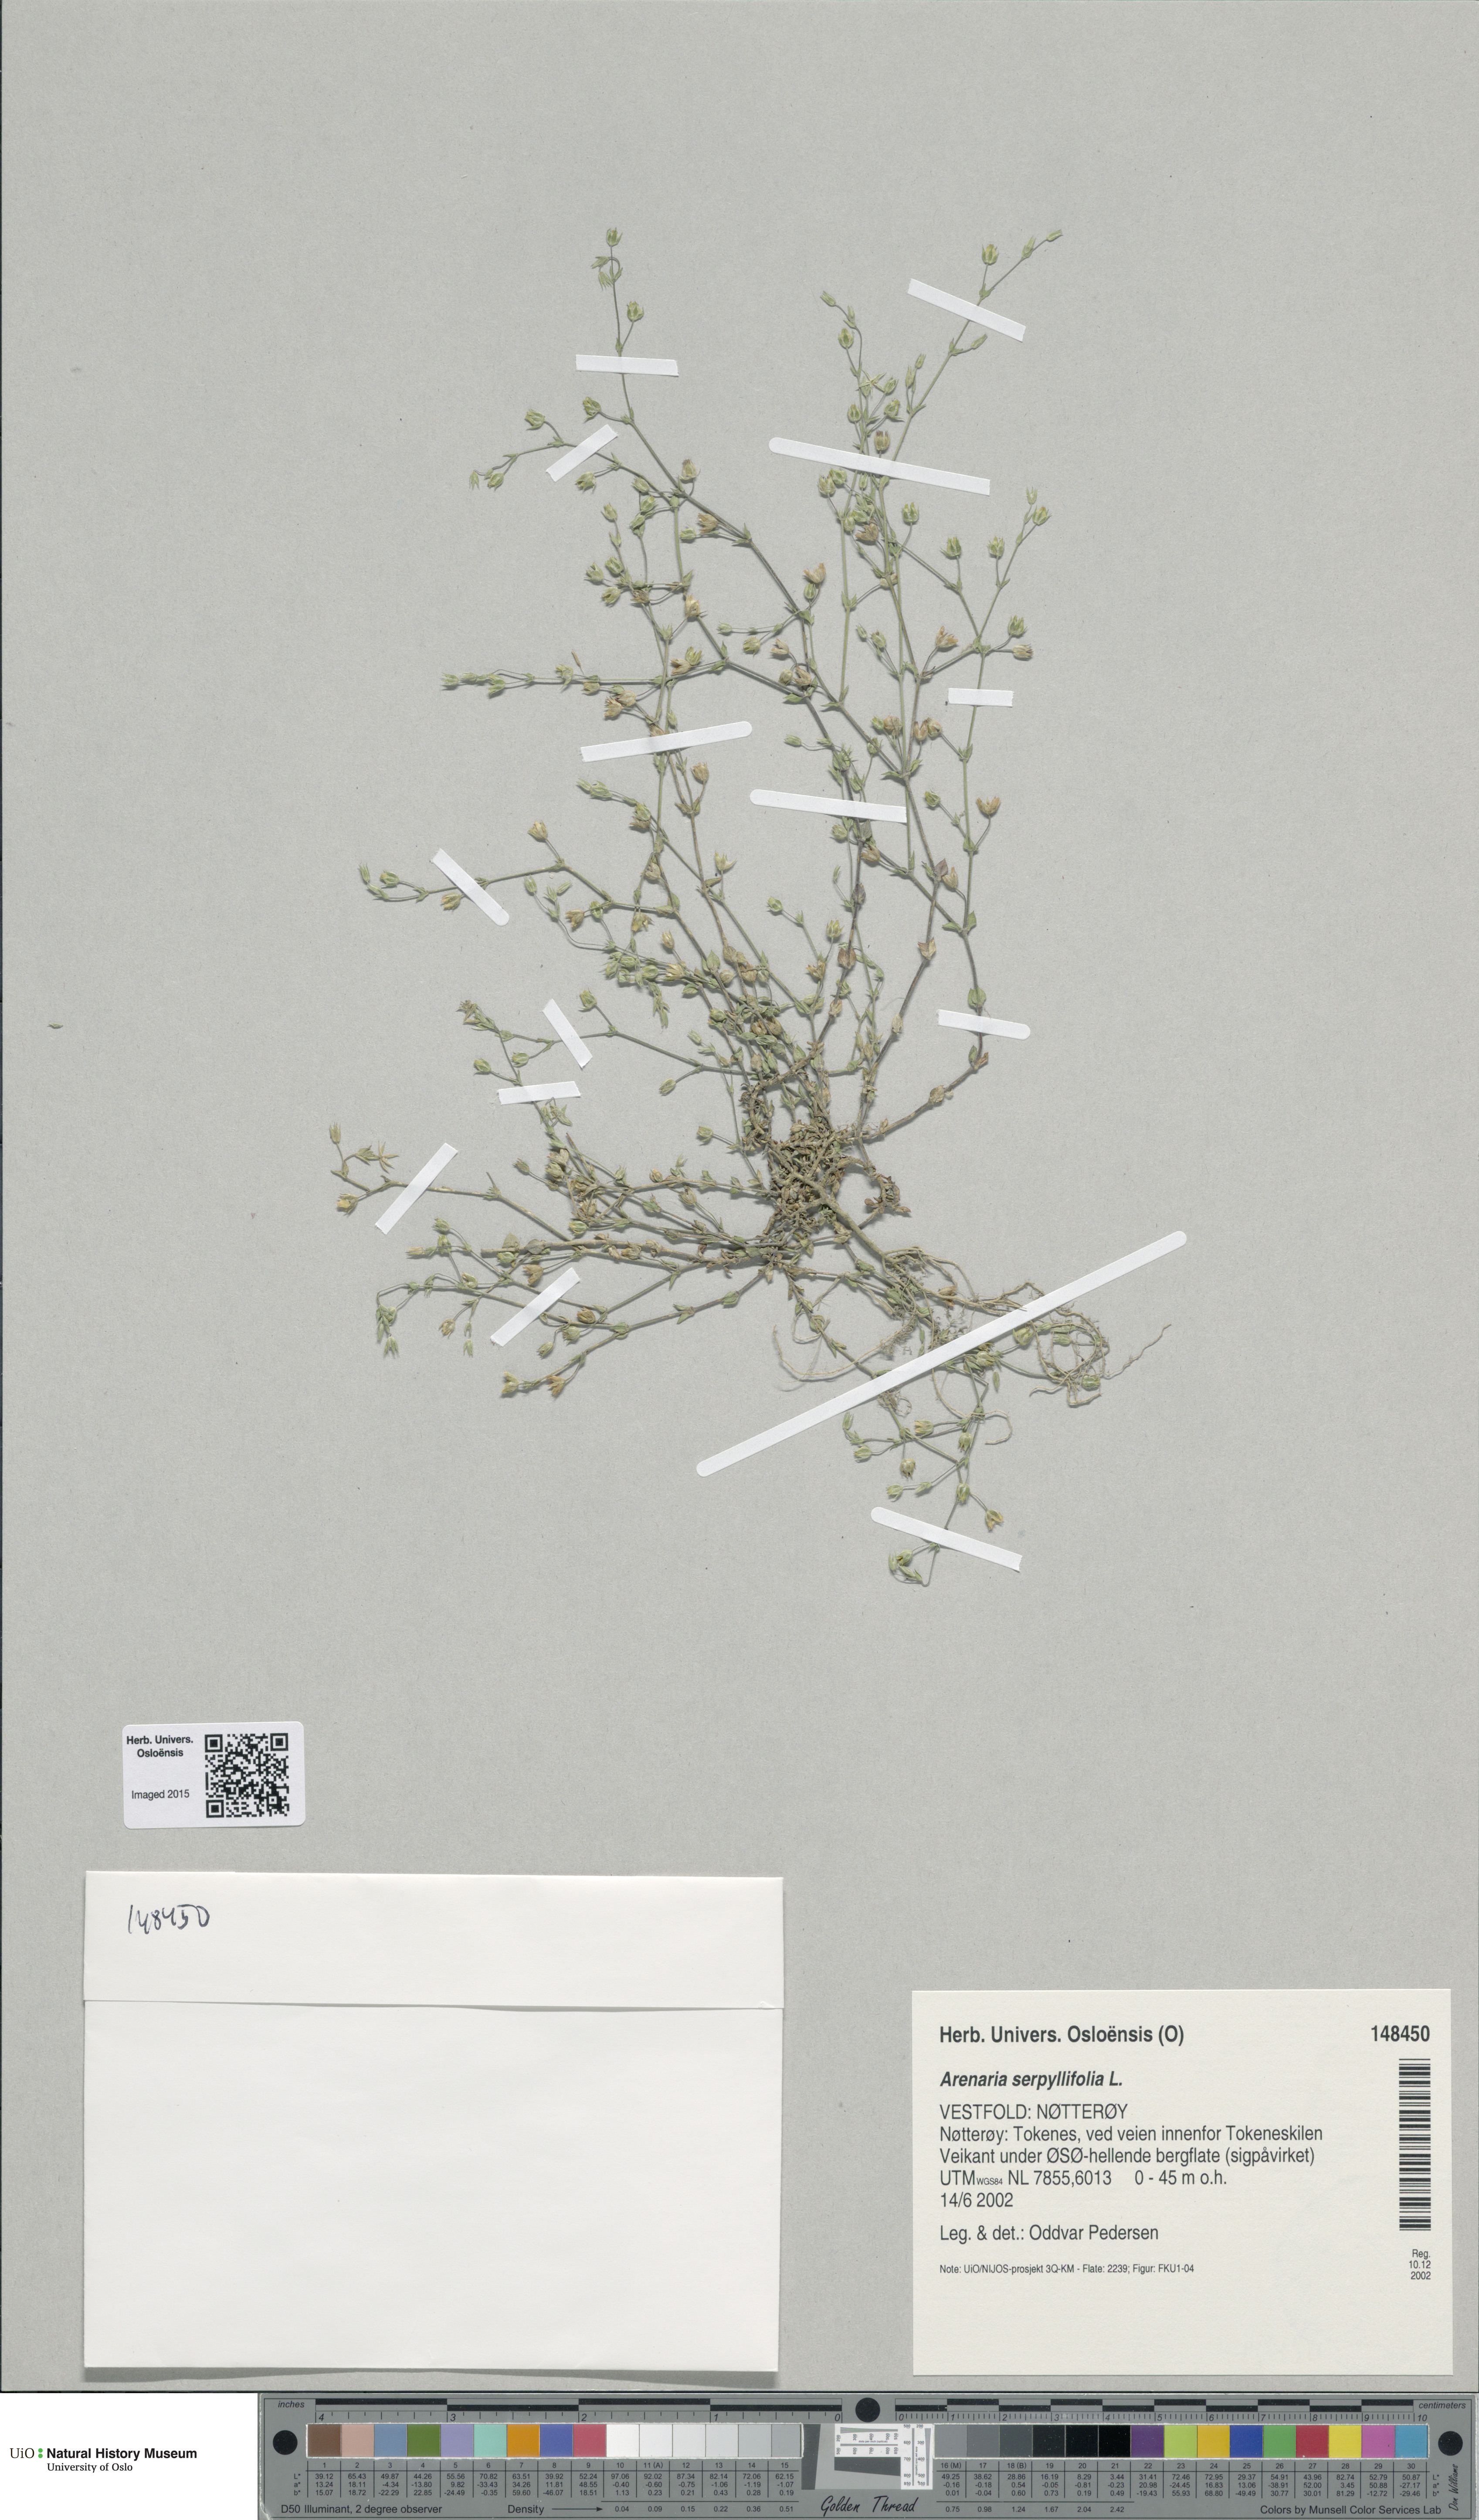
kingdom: Plantae
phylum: Tracheophyta
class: Magnoliopsida
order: Caryophyllales
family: Caryophyllaceae
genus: Arenaria
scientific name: Arenaria serpyllifolia
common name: Thyme-leaved sandwort
